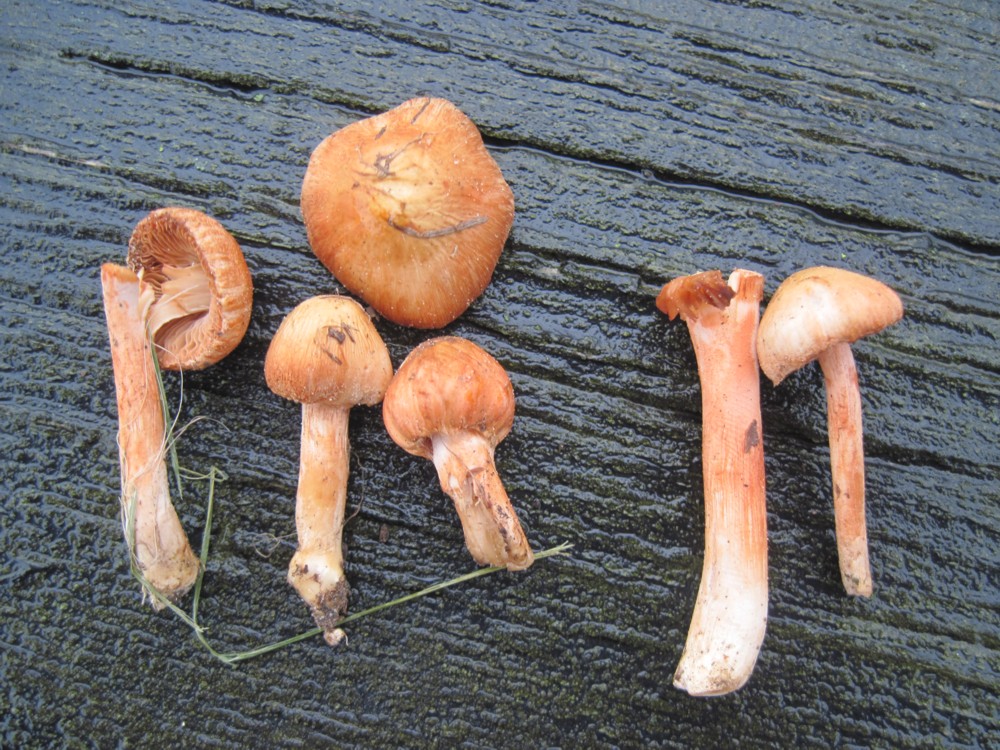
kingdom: Fungi
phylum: Basidiomycota
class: Agaricomycetes
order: Agaricales
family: Inocybaceae
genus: Inocybe
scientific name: Inocybe
